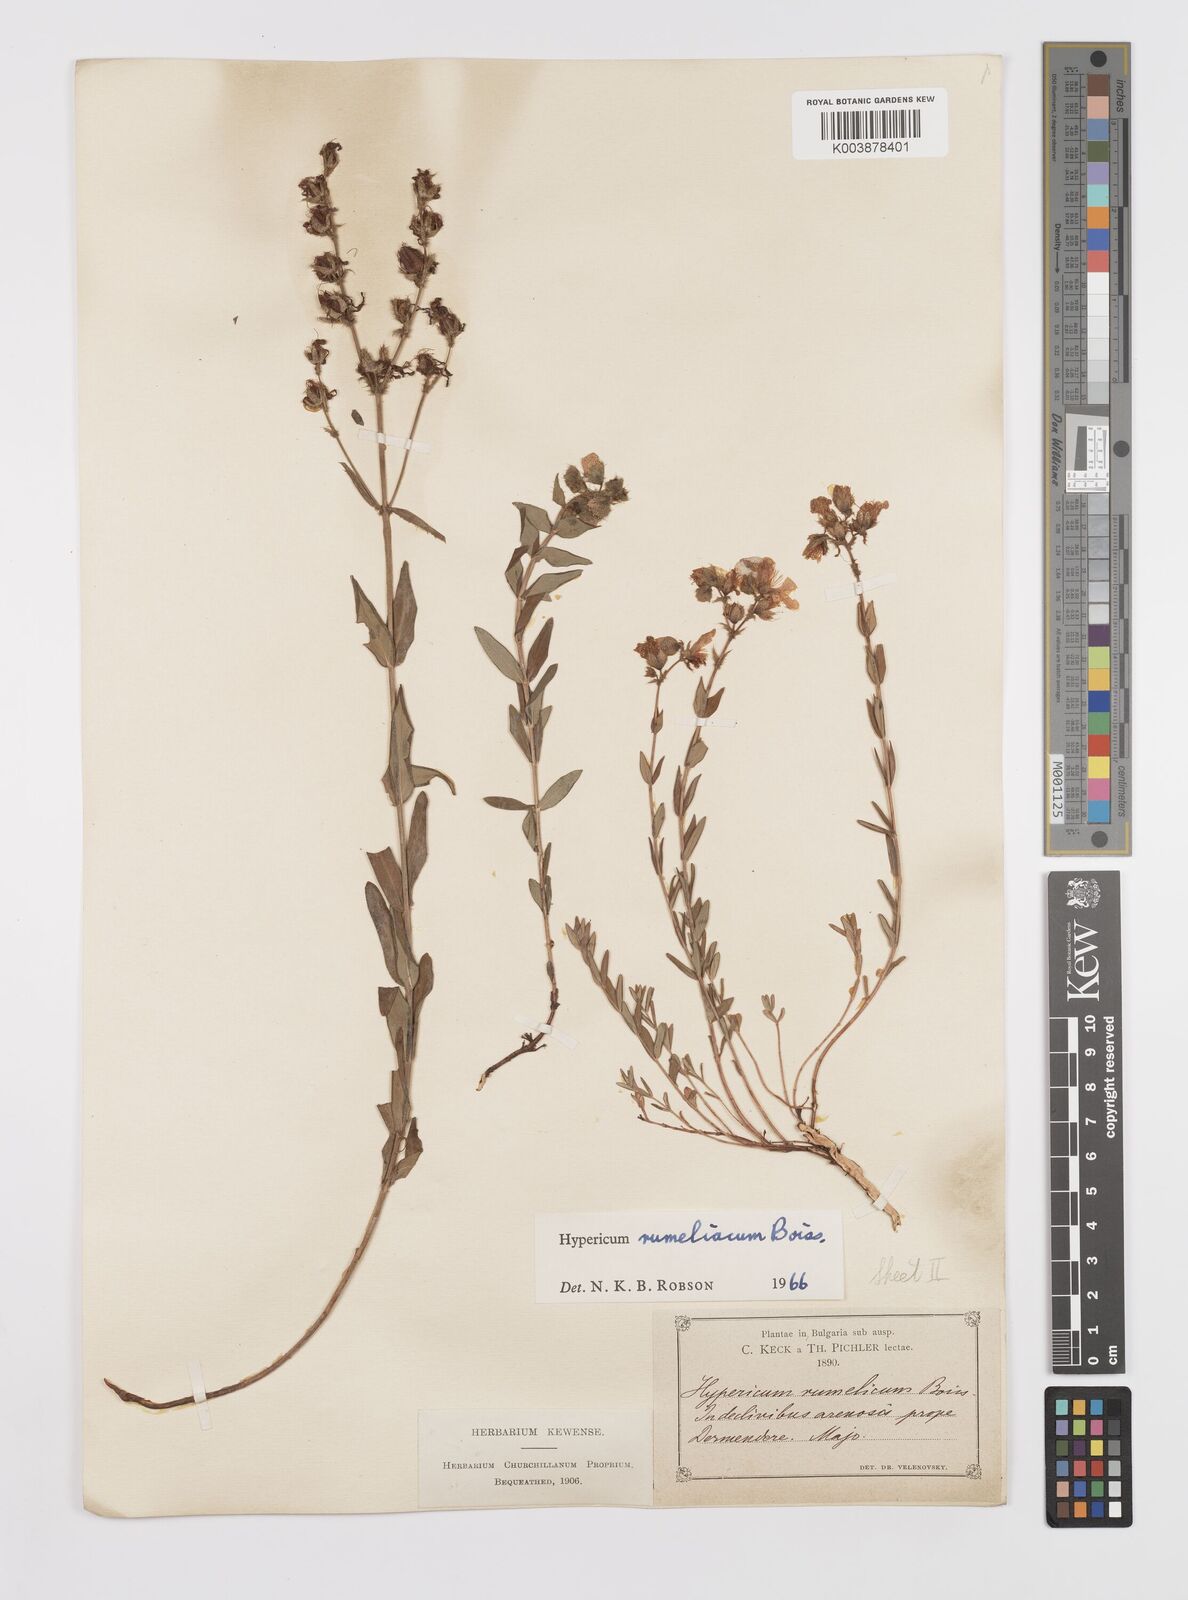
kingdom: Plantae
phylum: Tracheophyta
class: Magnoliopsida
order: Malpighiales
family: Hypericaceae
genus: Hypericum
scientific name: Hypericum rumeliacum
